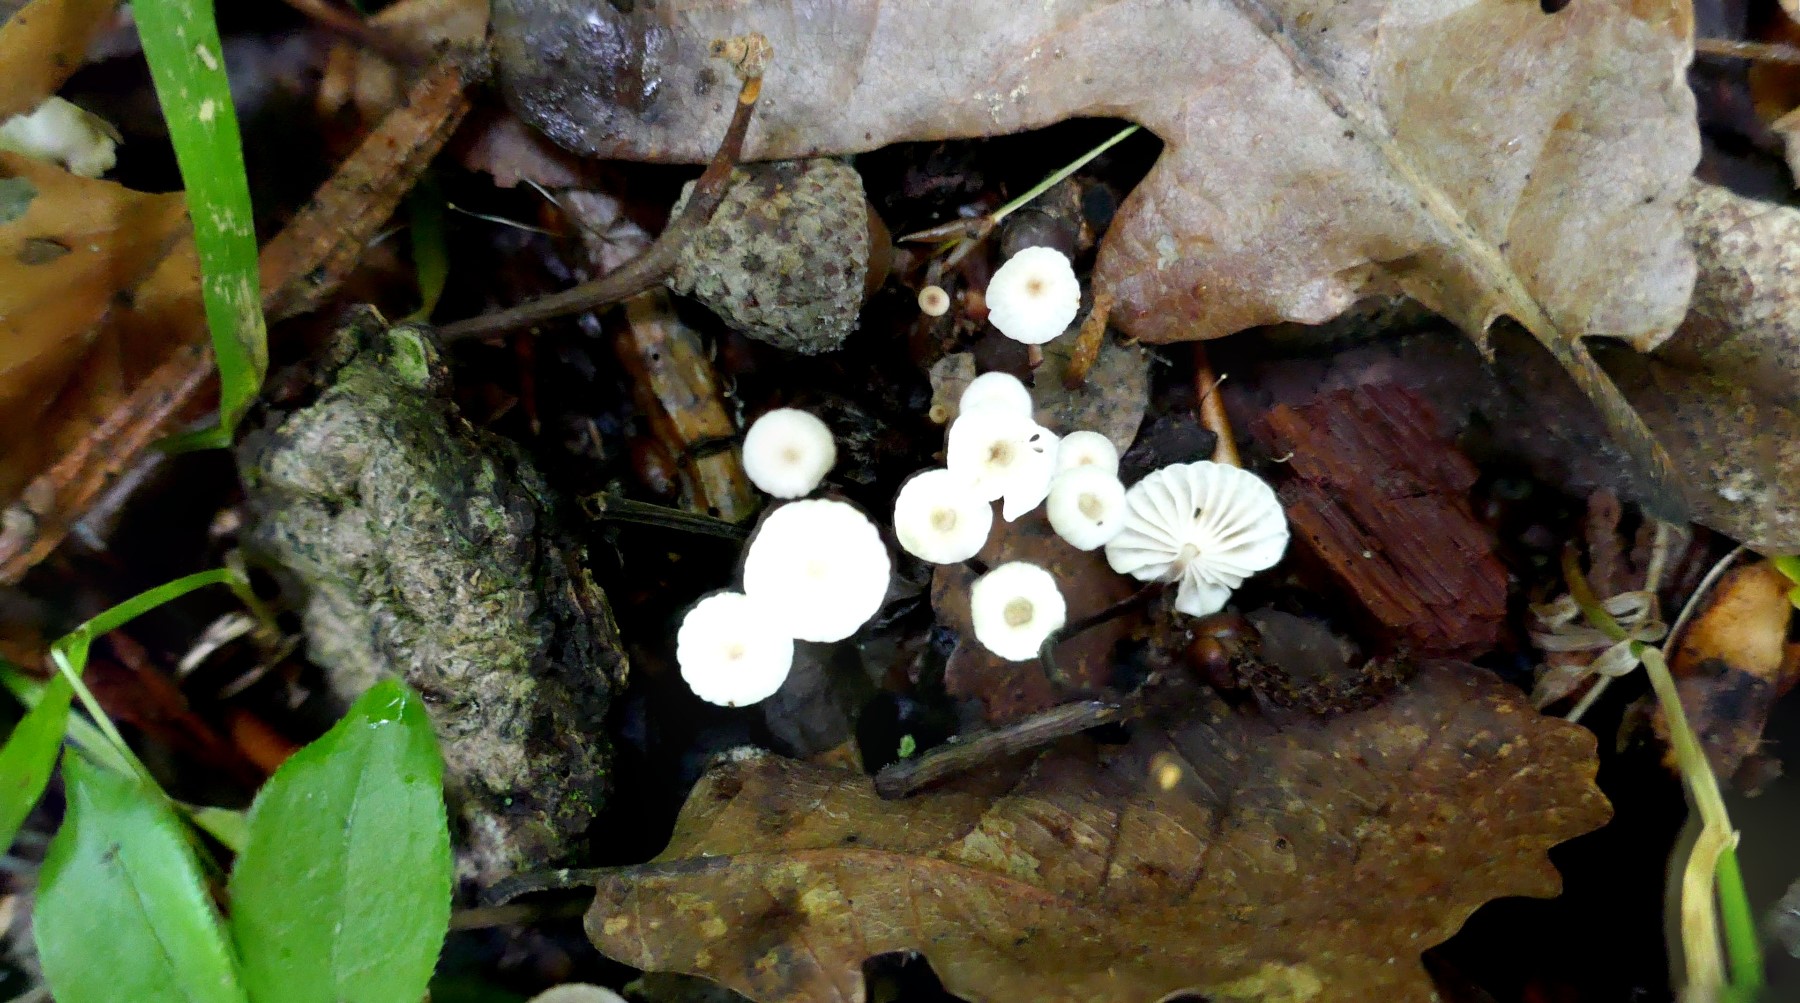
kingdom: Fungi
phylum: Basidiomycota
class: Agaricomycetes
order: Agaricales
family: Marasmiaceae
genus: Marasmius
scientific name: Marasmius rotula
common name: hjul-bruskhat
